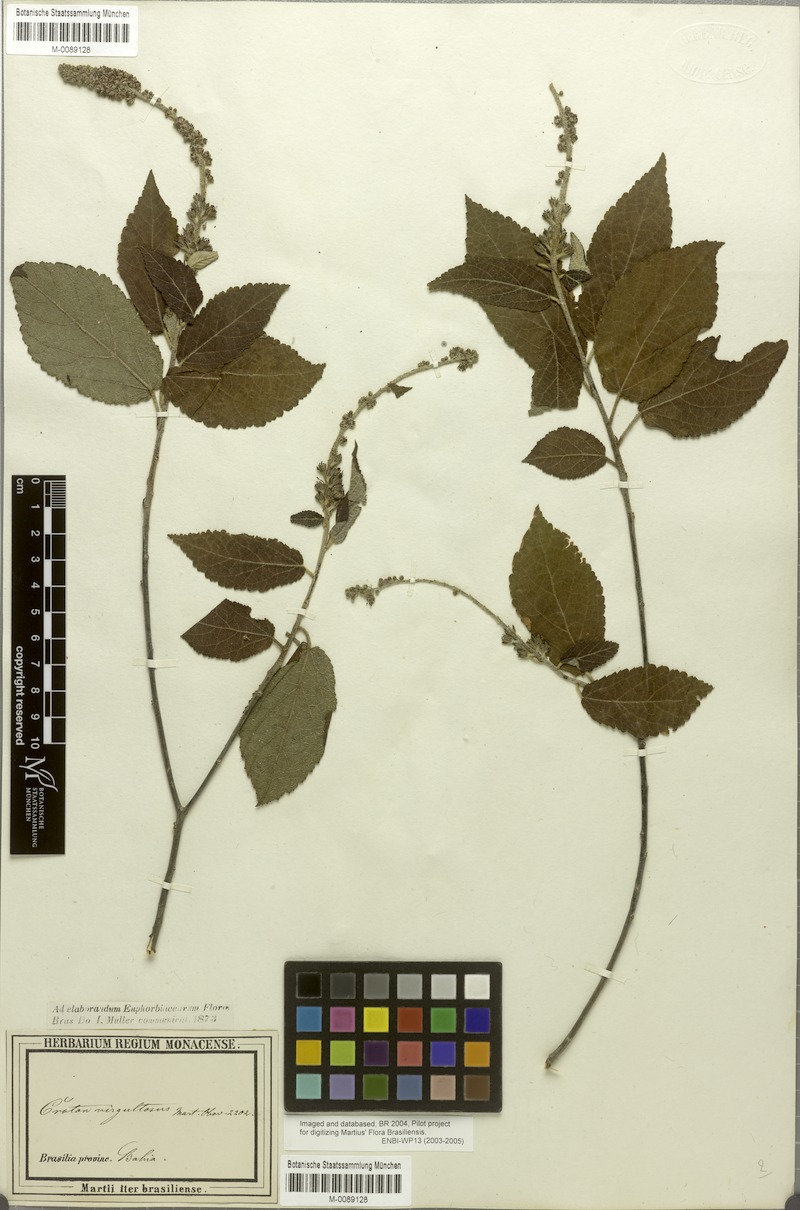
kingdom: Plantae
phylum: Tracheophyta
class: Magnoliopsida
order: Malpighiales
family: Euphorbiaceae
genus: Croton
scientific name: Croton virgultosus
